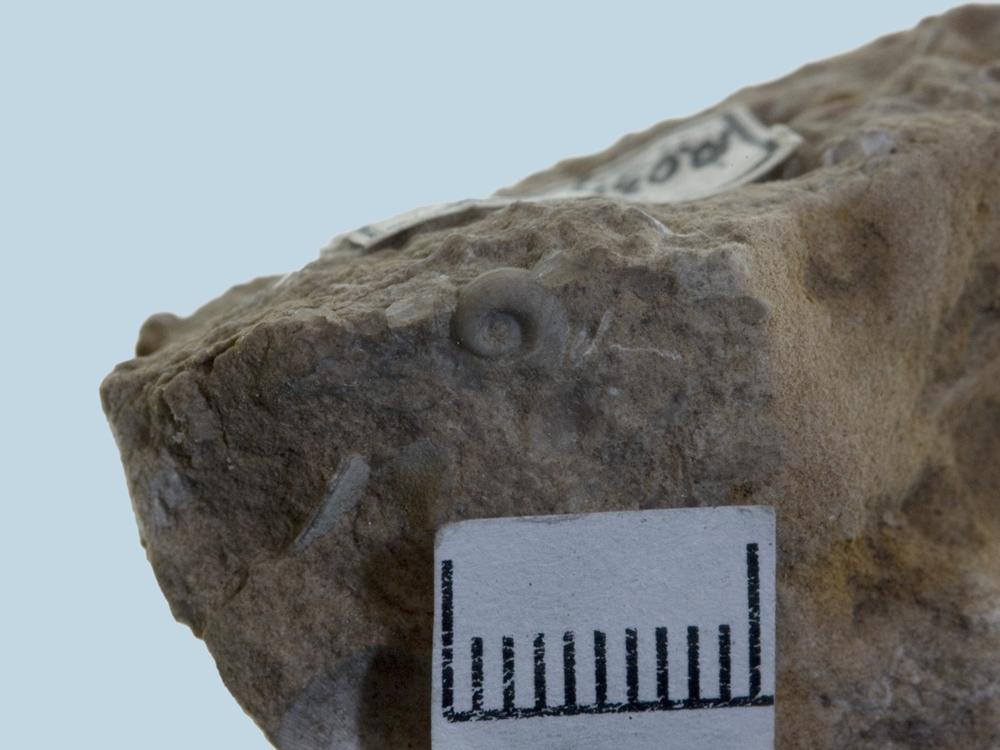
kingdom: Animalia
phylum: Mollusca
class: Gastropoda
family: Bucaniidae
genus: Bucania
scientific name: Bucania Bellerophon czekanowskii
